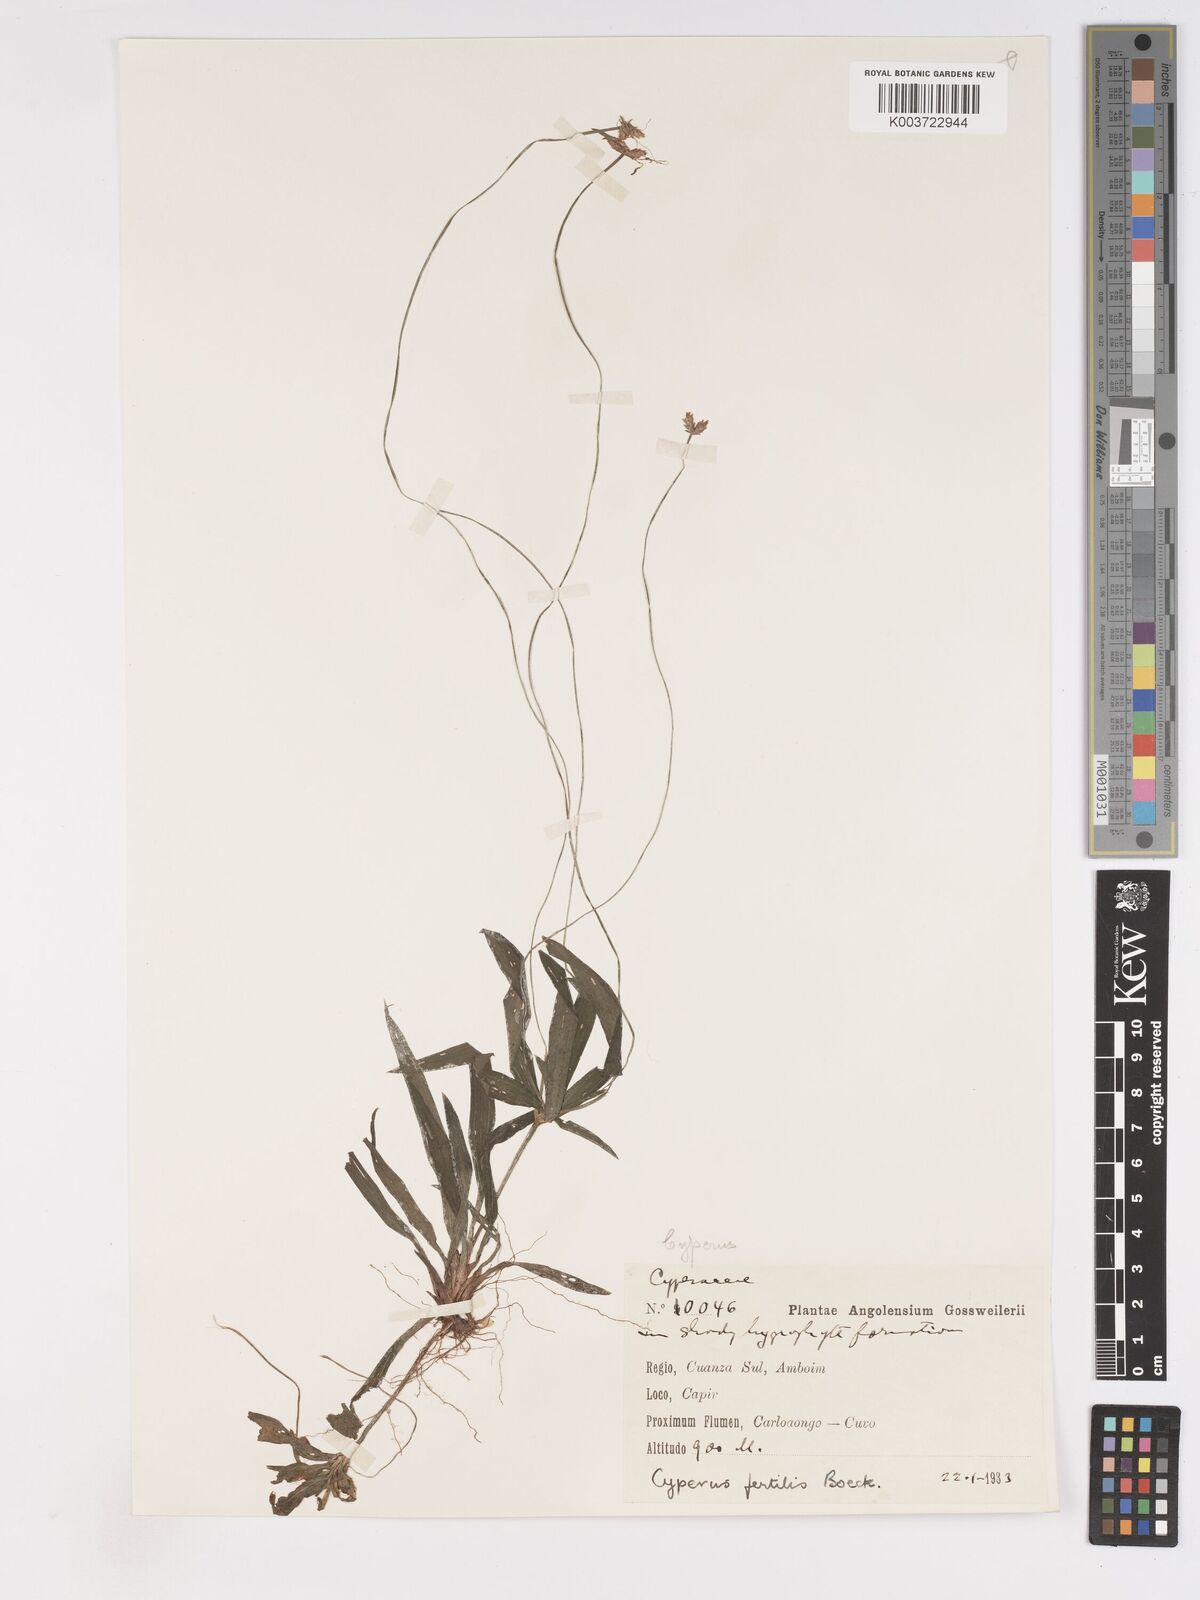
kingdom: Plantae
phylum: Tracheophyta
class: Liliopsida
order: Poales
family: Cyperaceae
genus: Cyperus
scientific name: Cyperus fertilis
